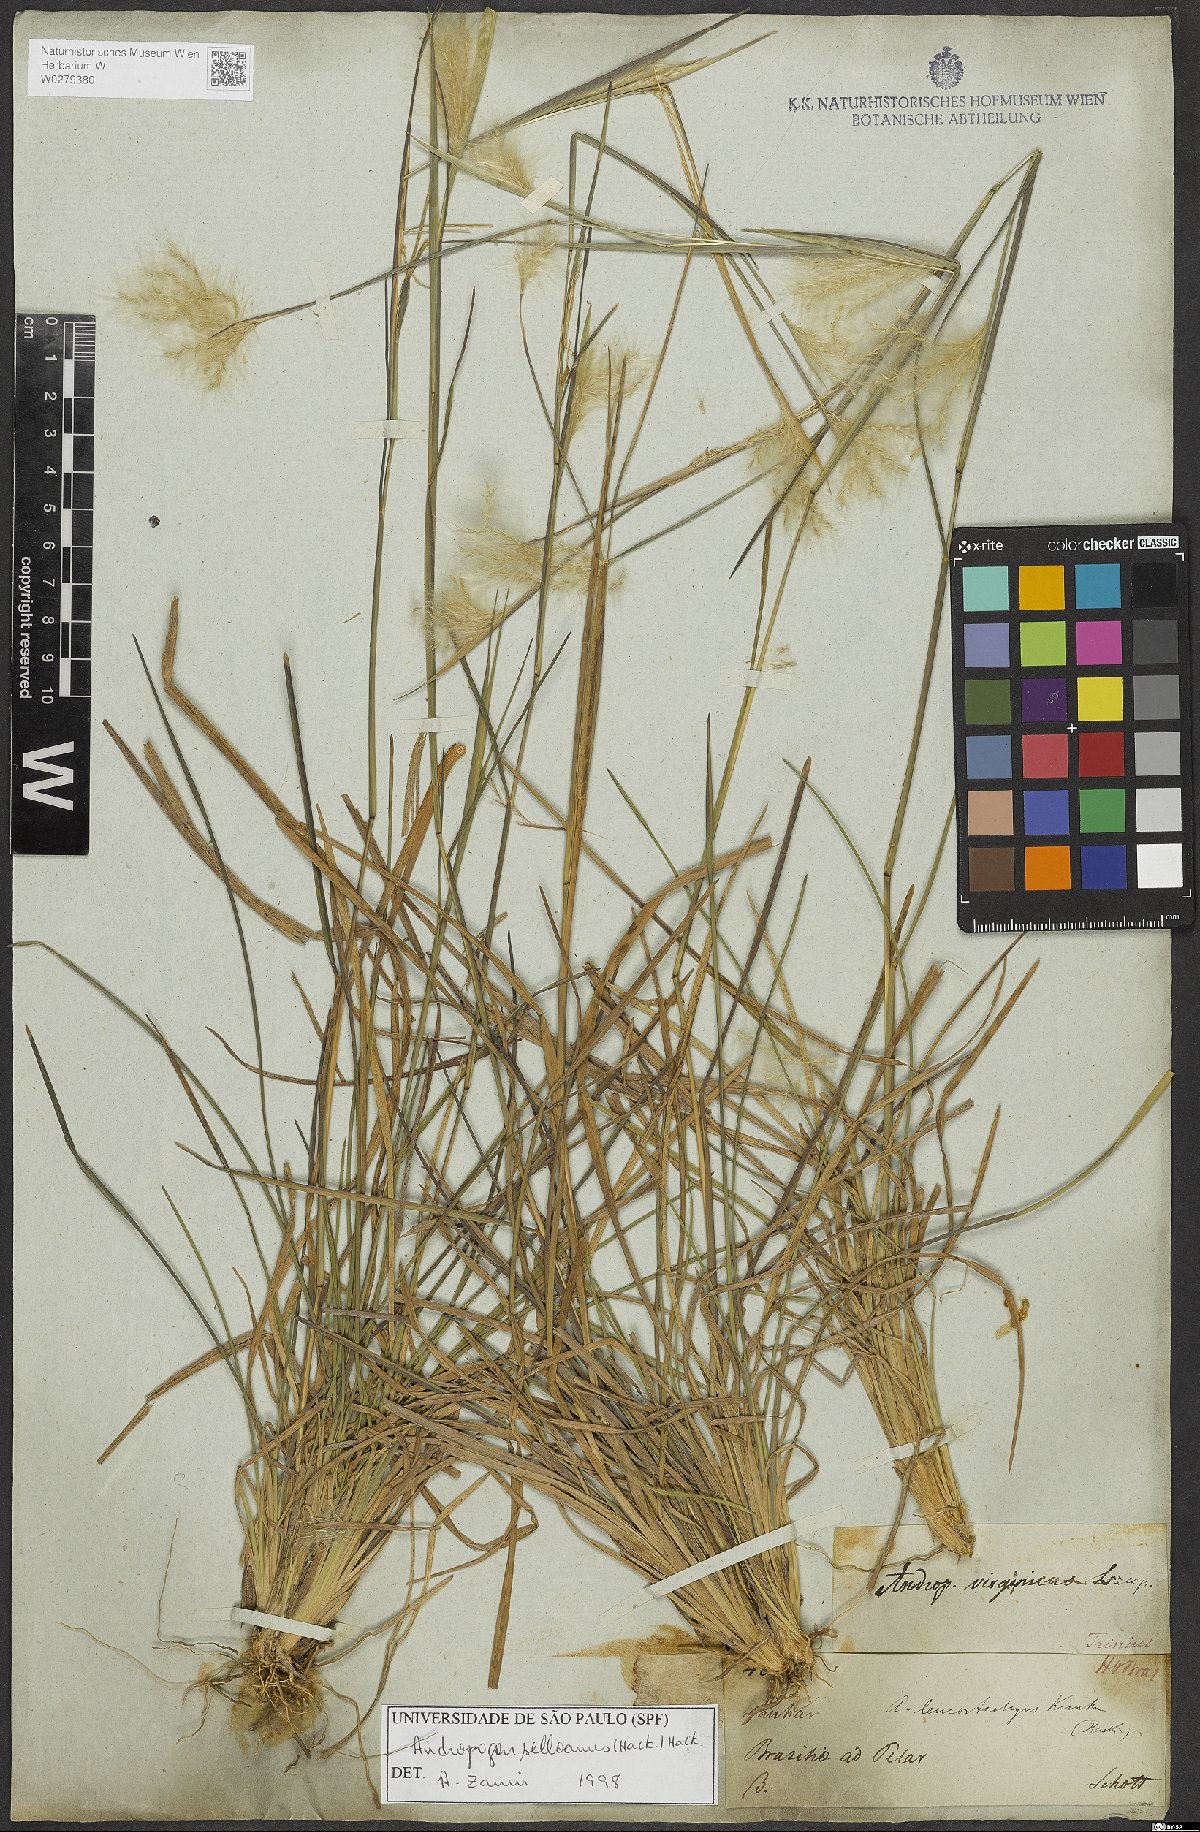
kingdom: Plantae
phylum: Tracheophyta
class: Liliopsida
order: Poales
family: Poaceae
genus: Andropogon
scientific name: Andropogon selloanus
